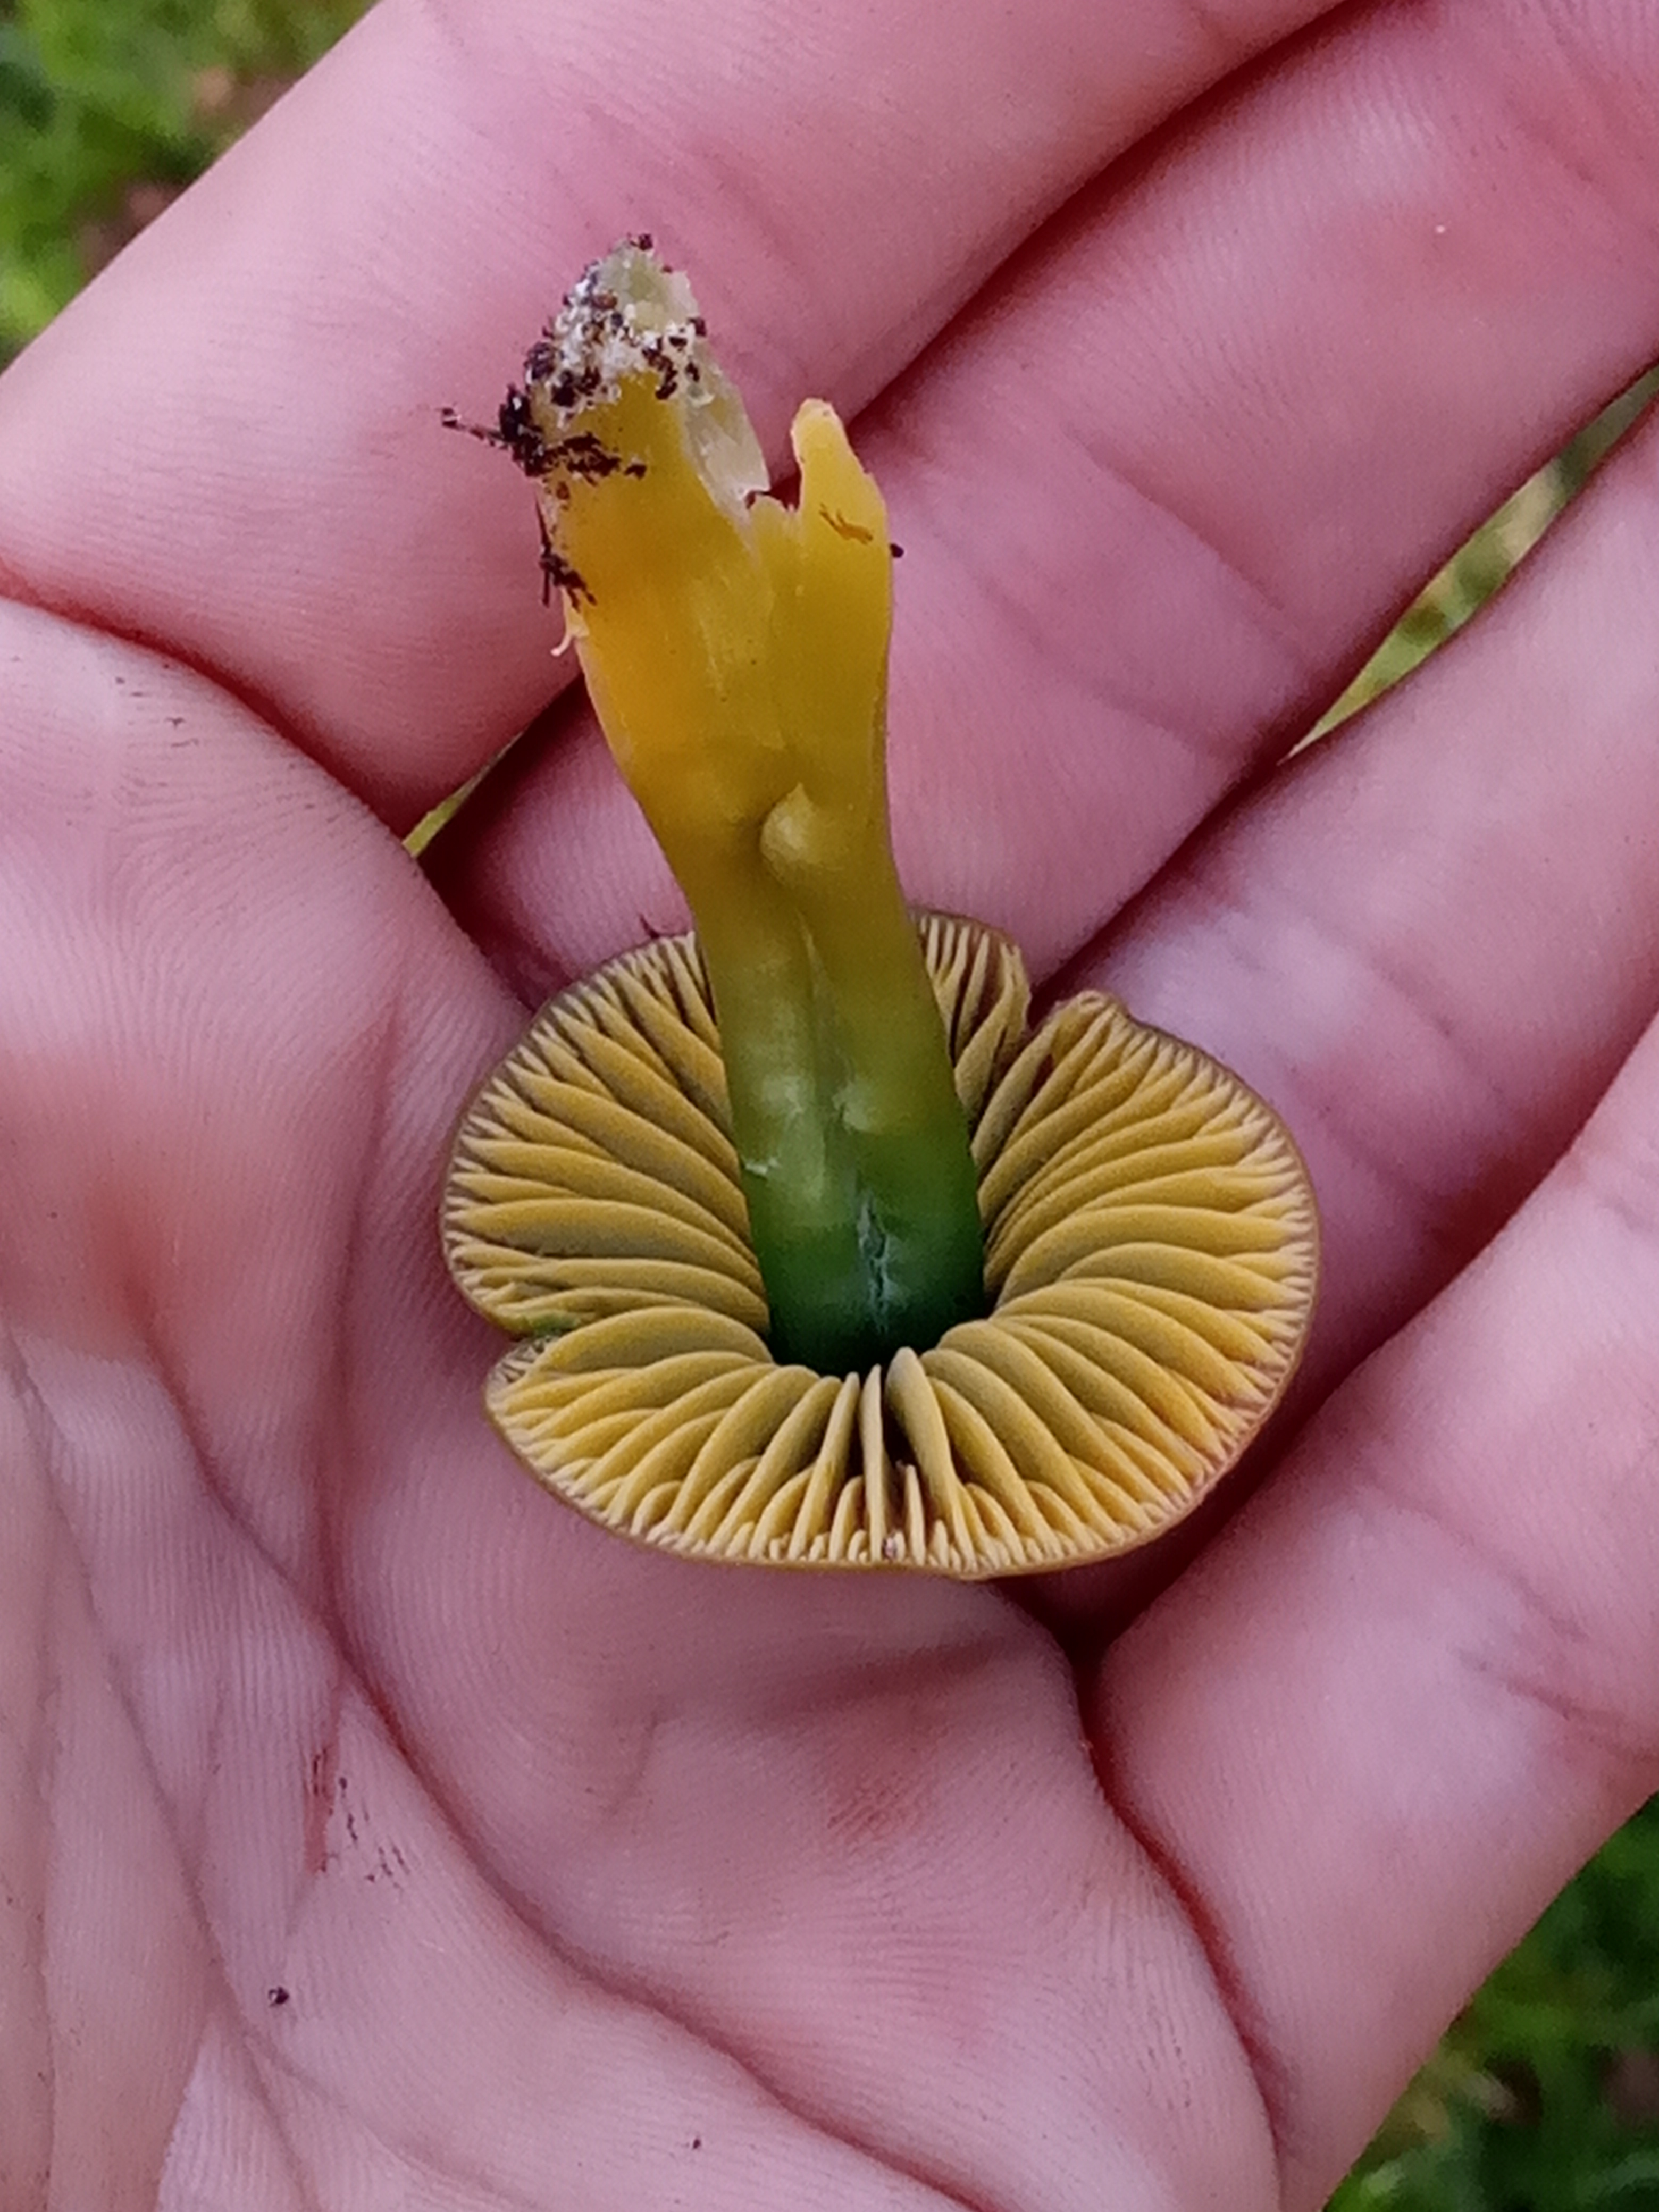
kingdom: Fungi
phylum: Basidiomycota
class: Agaricomycetes
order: Agaricales
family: Hygrophoraceae
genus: Gliophorus
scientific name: Gliophorus psittacinus
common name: Papegøje-vokshat
